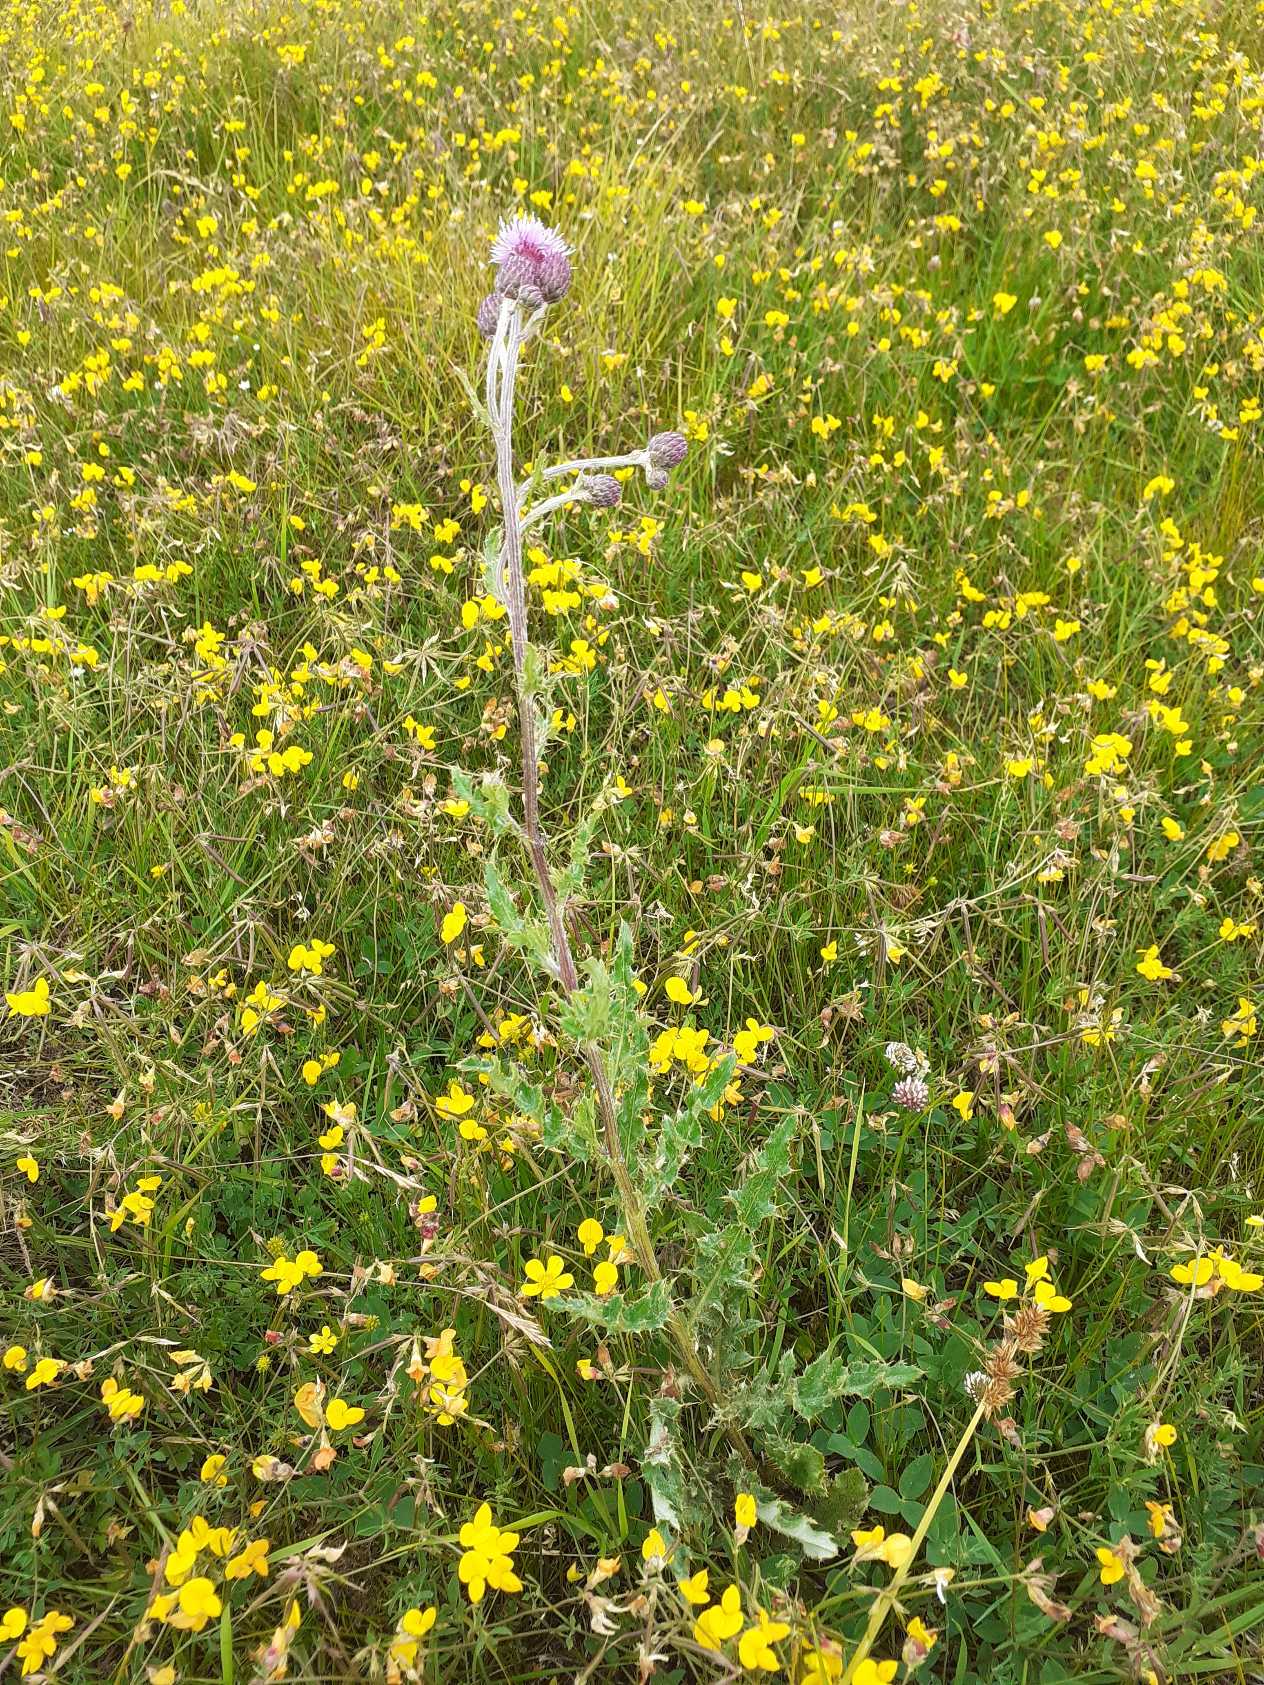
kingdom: Plantae
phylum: Tracheophyta
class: Magnoliopsida
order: Asterales
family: Asteraceae
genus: Cirsium
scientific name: Cirsium arvense
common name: Ager-tidsel
